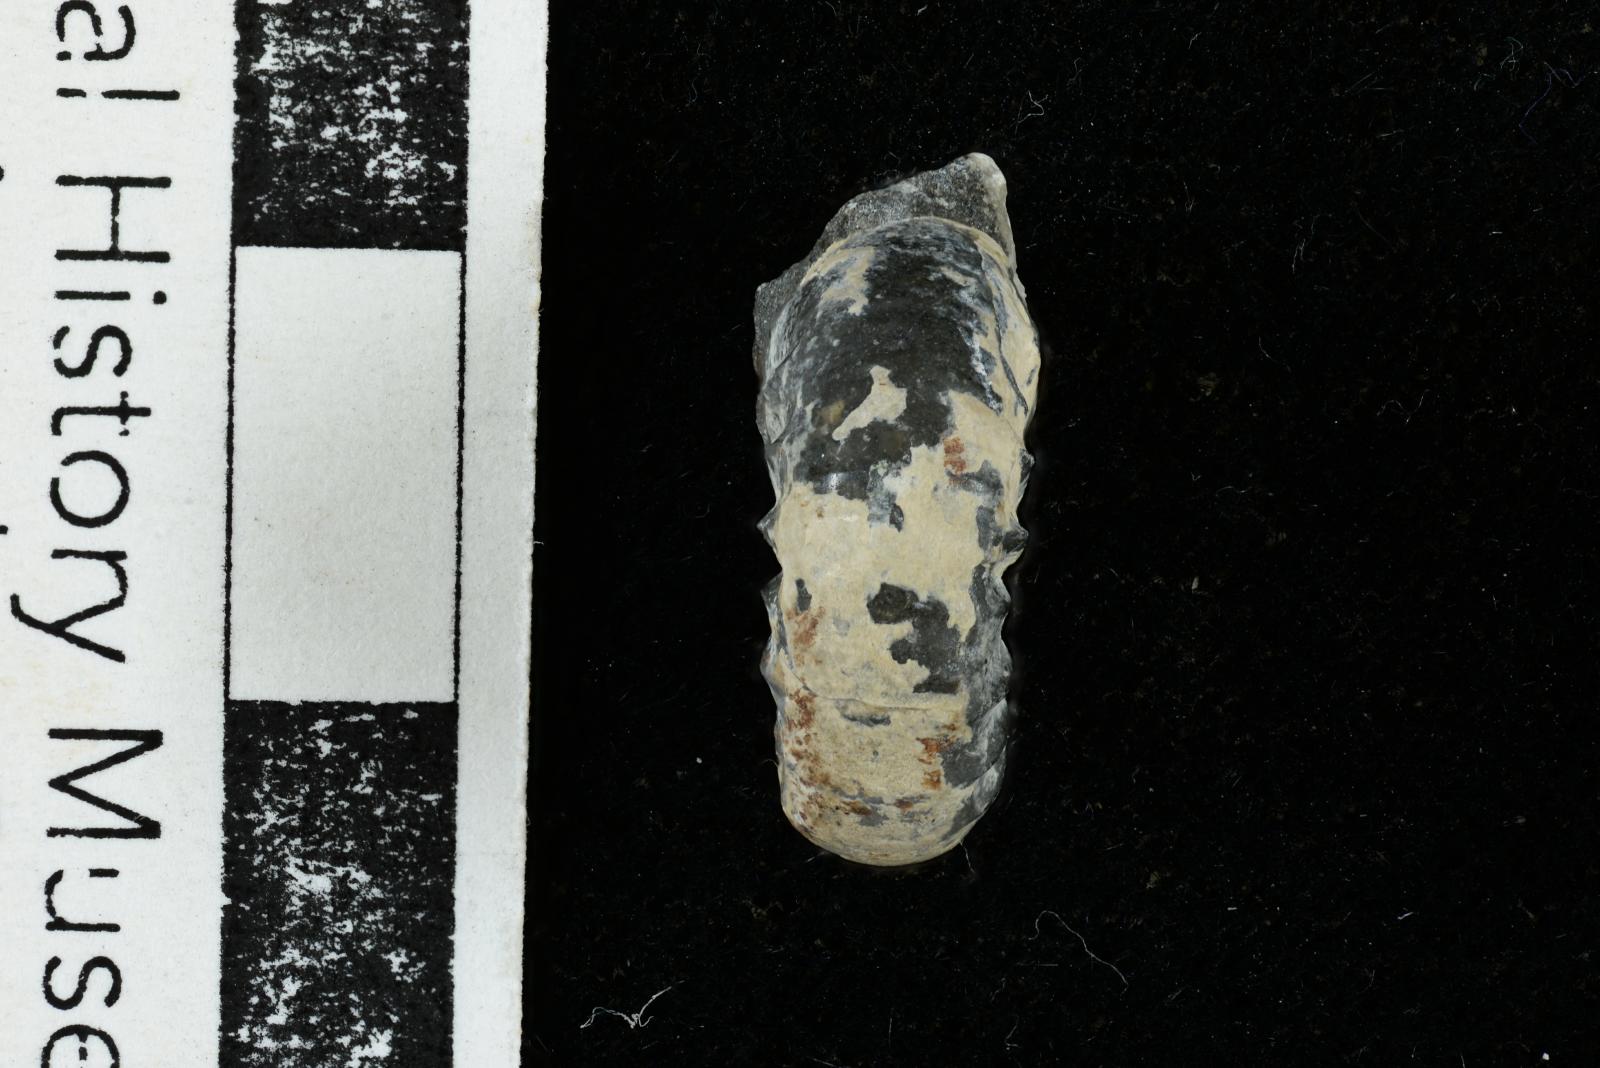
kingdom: Animalia
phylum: Mollusca
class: Cephalopoda
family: Scaphitidae
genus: Yezoites
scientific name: Yezoites puerculus
